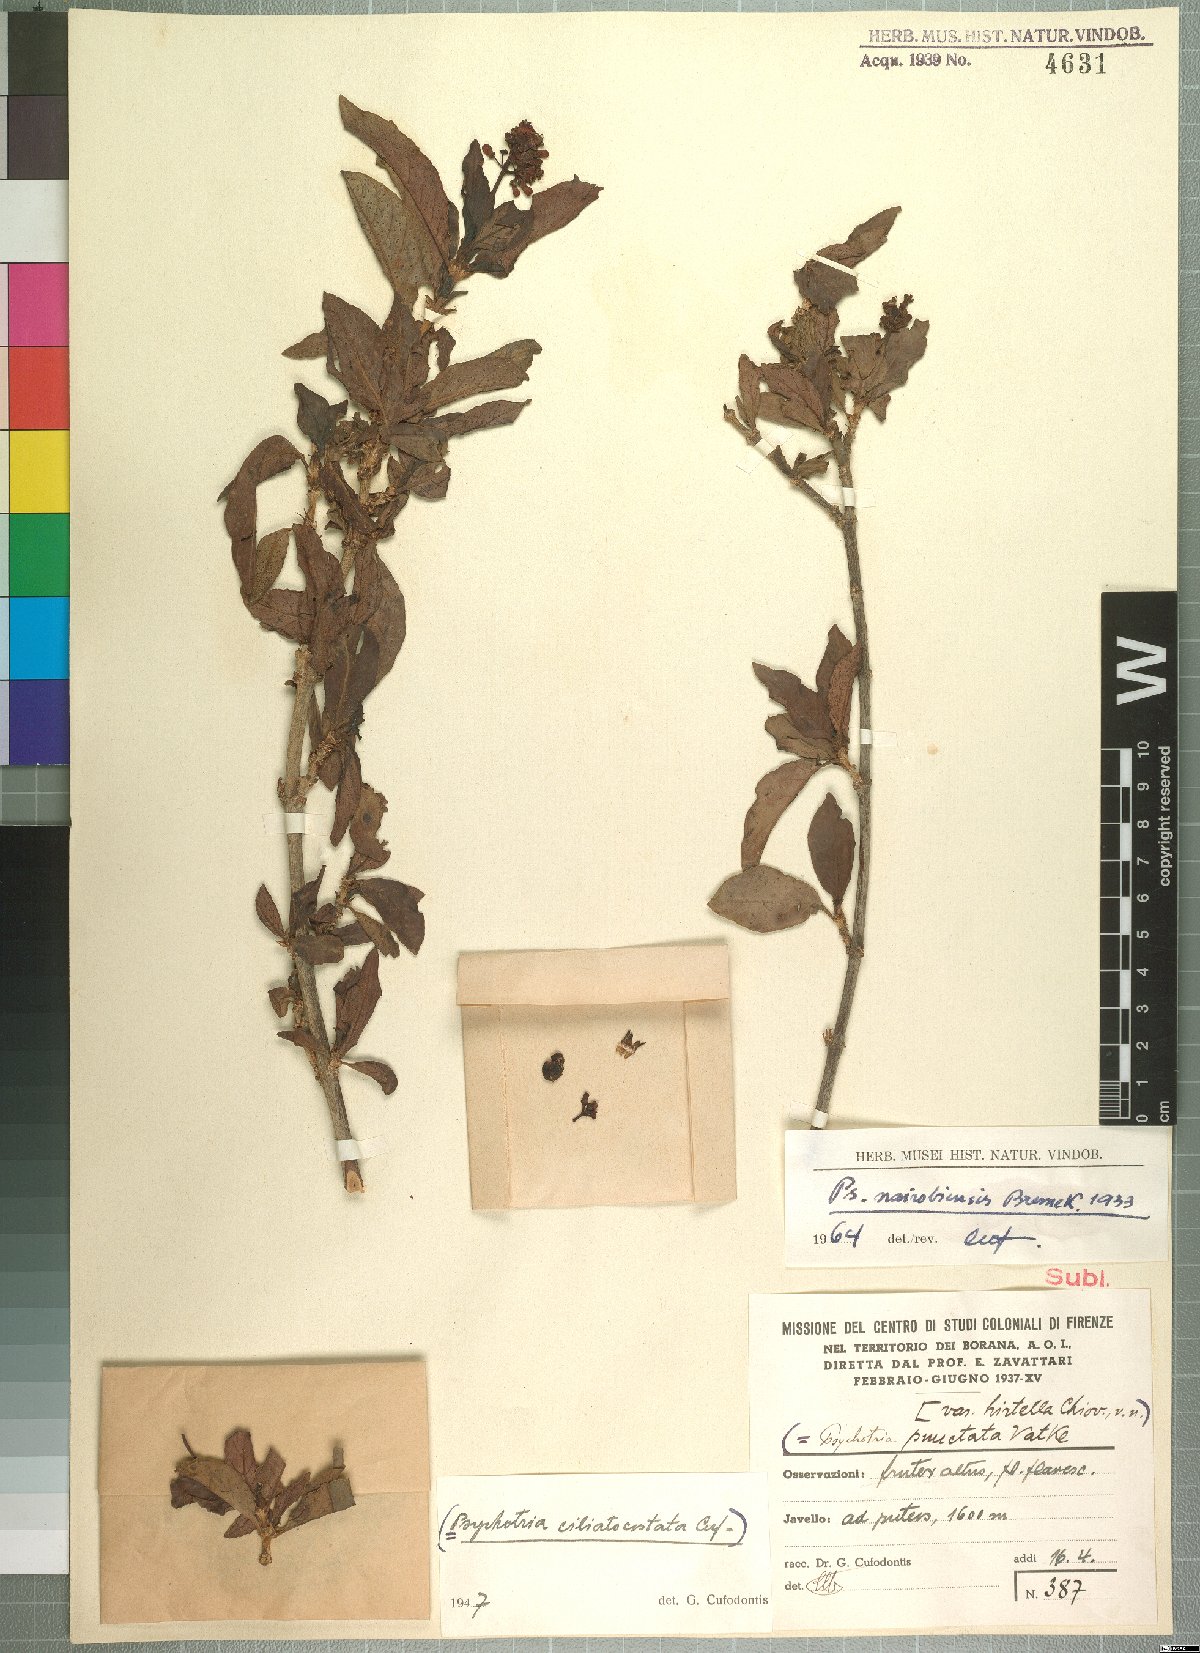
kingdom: Plantae
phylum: Tracheophyta
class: Magnoliopsida
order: Gentianales
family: Rubiaceae
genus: Psychotria
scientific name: Psychotria punctata
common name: Dotted wild coffee
